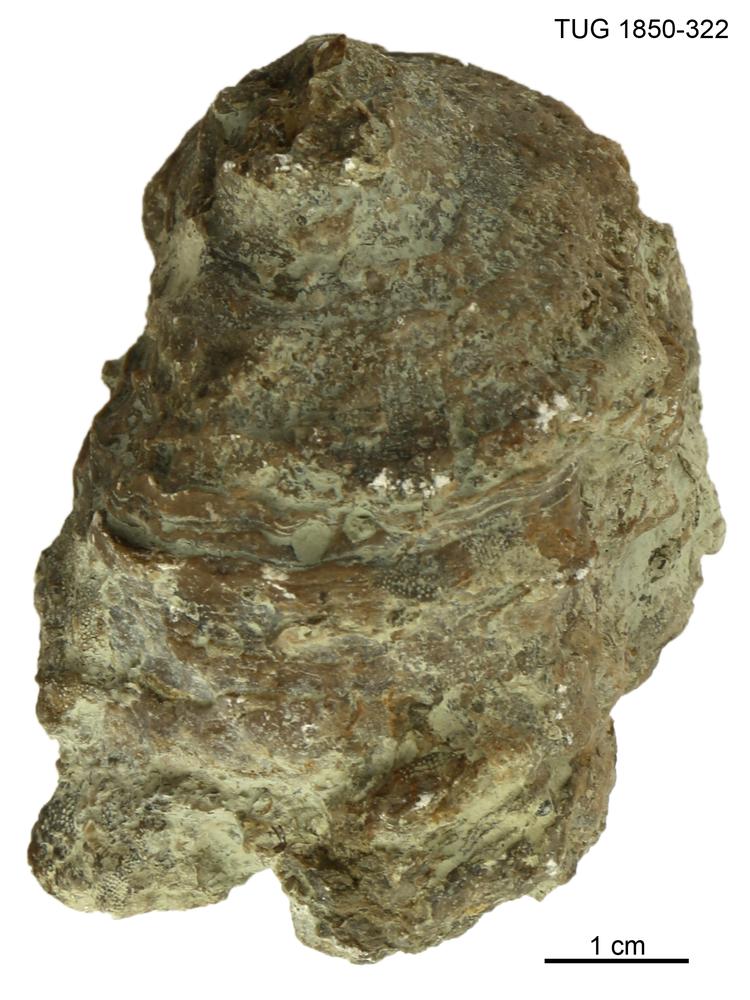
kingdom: Animalia
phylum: Porifera
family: Stromatoporidae
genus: Stromatopora
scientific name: Stromatopora
